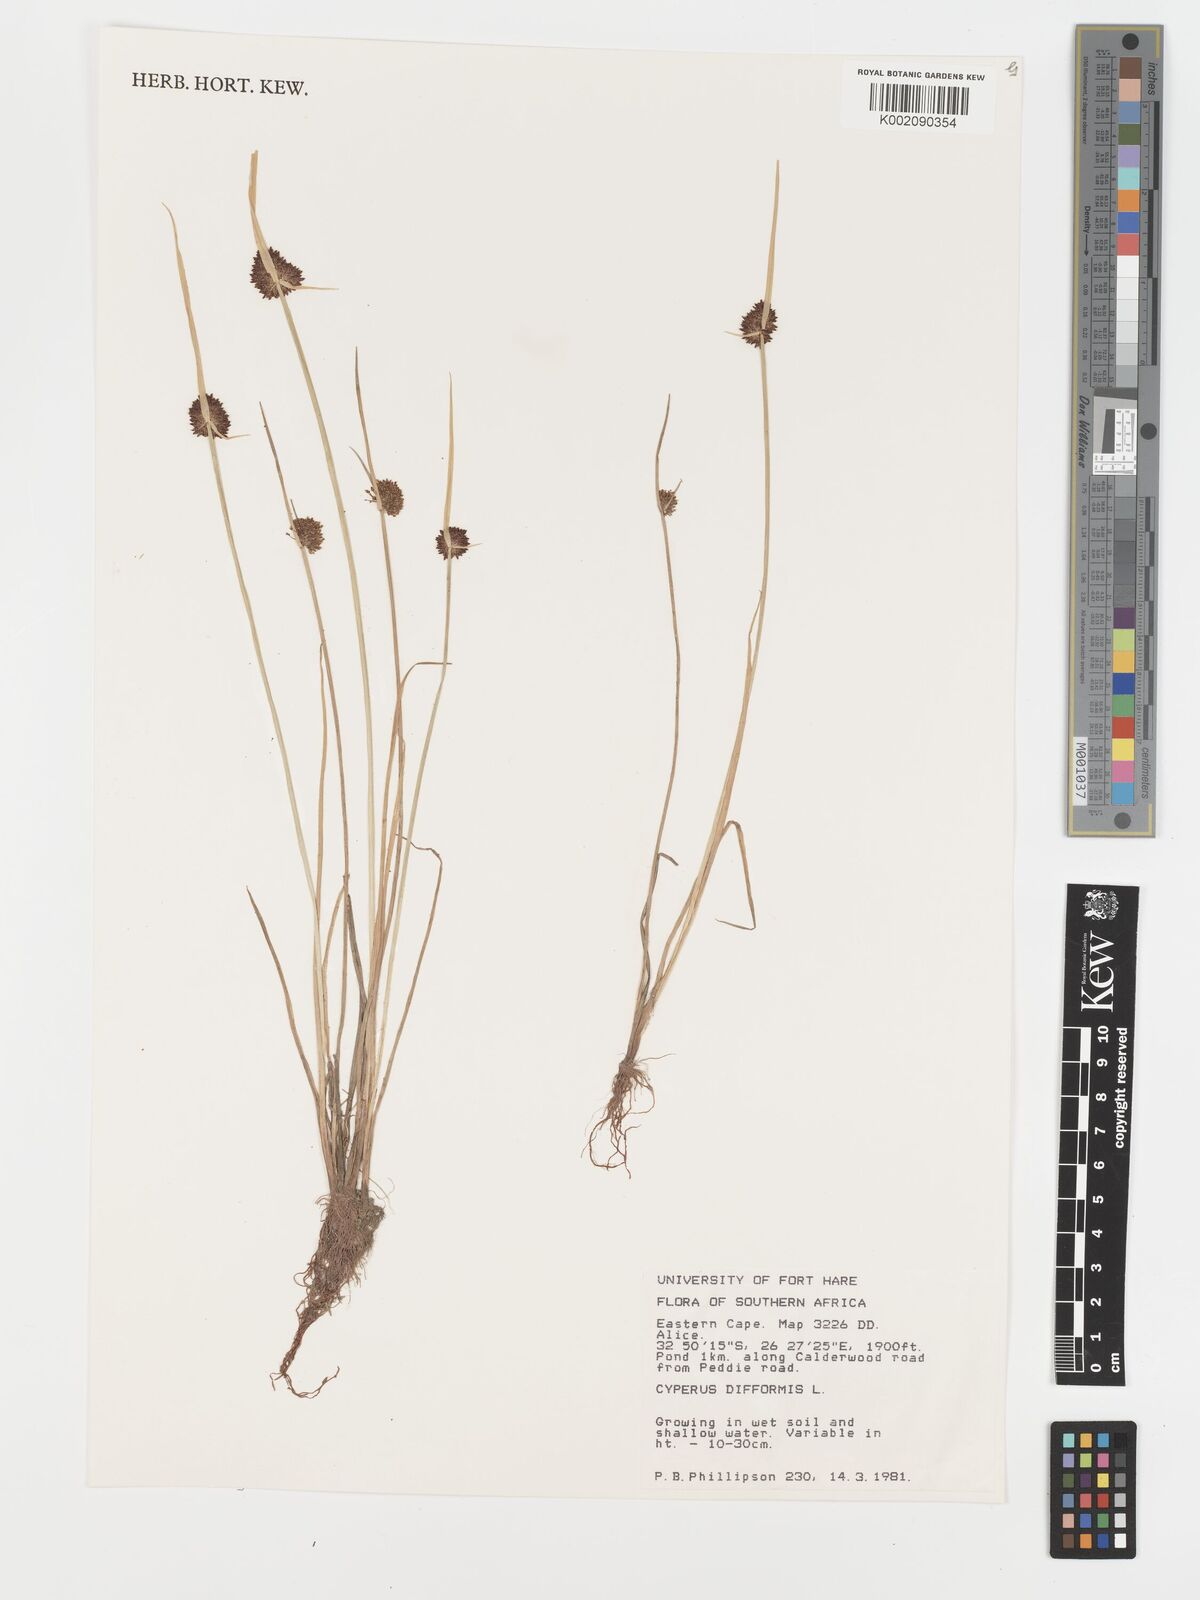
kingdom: Plantae
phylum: Tracheophyta
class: Liliopsida
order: Poales
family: Cyperaceae
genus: Cyperus
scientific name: Cyperus difformis
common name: Variable flatsedge
